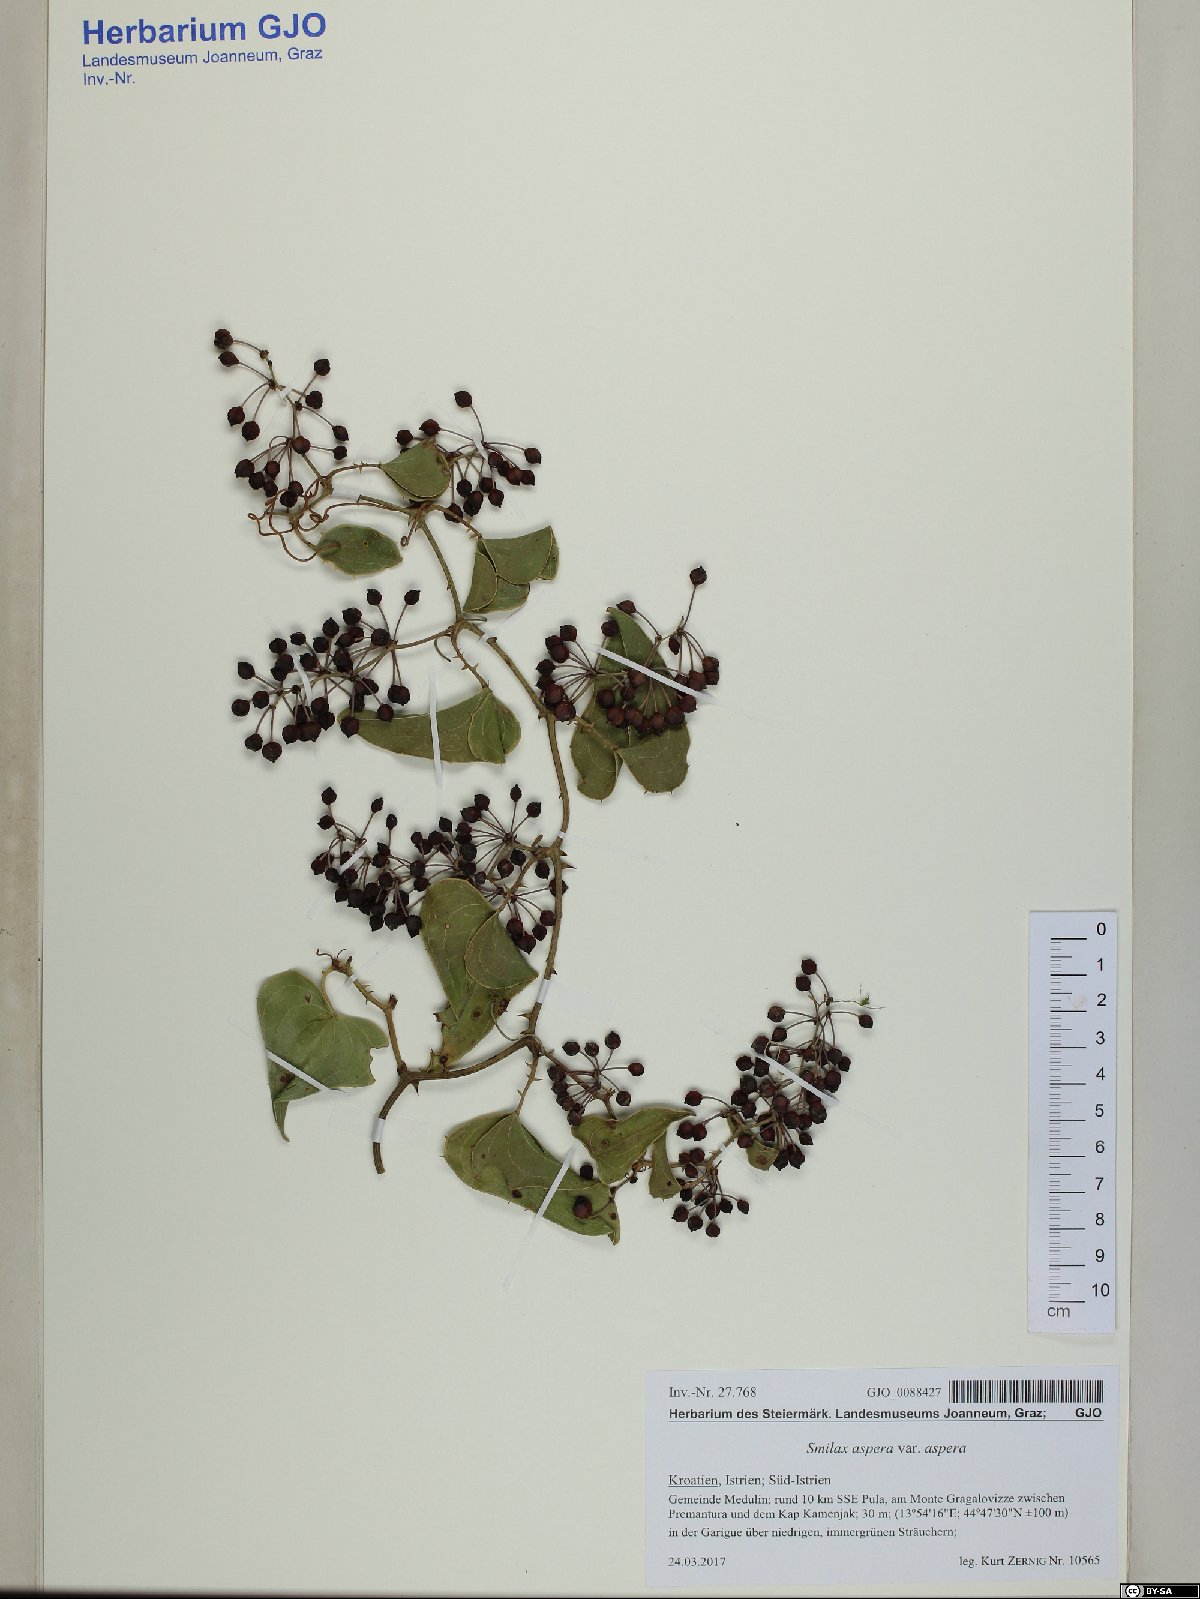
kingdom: Plantae
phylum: Tracheophyta
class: Liliopsida
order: Liliales
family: Smilacaceae
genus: Smilax
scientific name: Smilax aspera
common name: Common smilax
